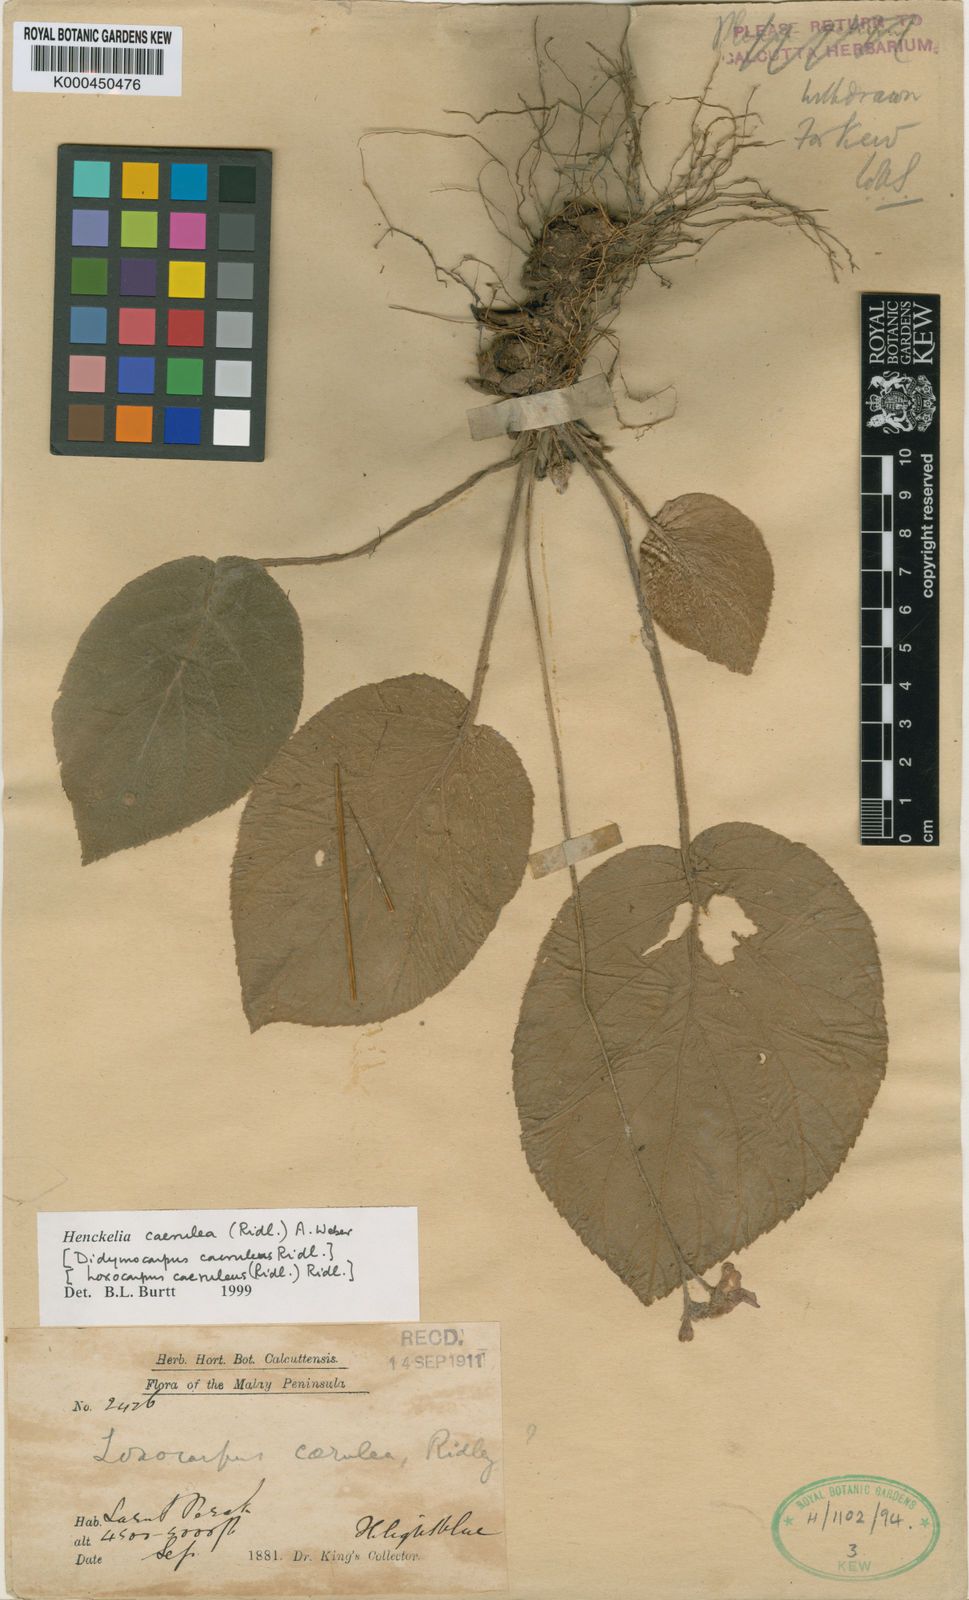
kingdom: Plantae
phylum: Tracheophyta
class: Magnoliopsida
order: Lamiales
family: Gesneriaceae
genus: Loxocarpus
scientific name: Loxocarpus caeruleus
